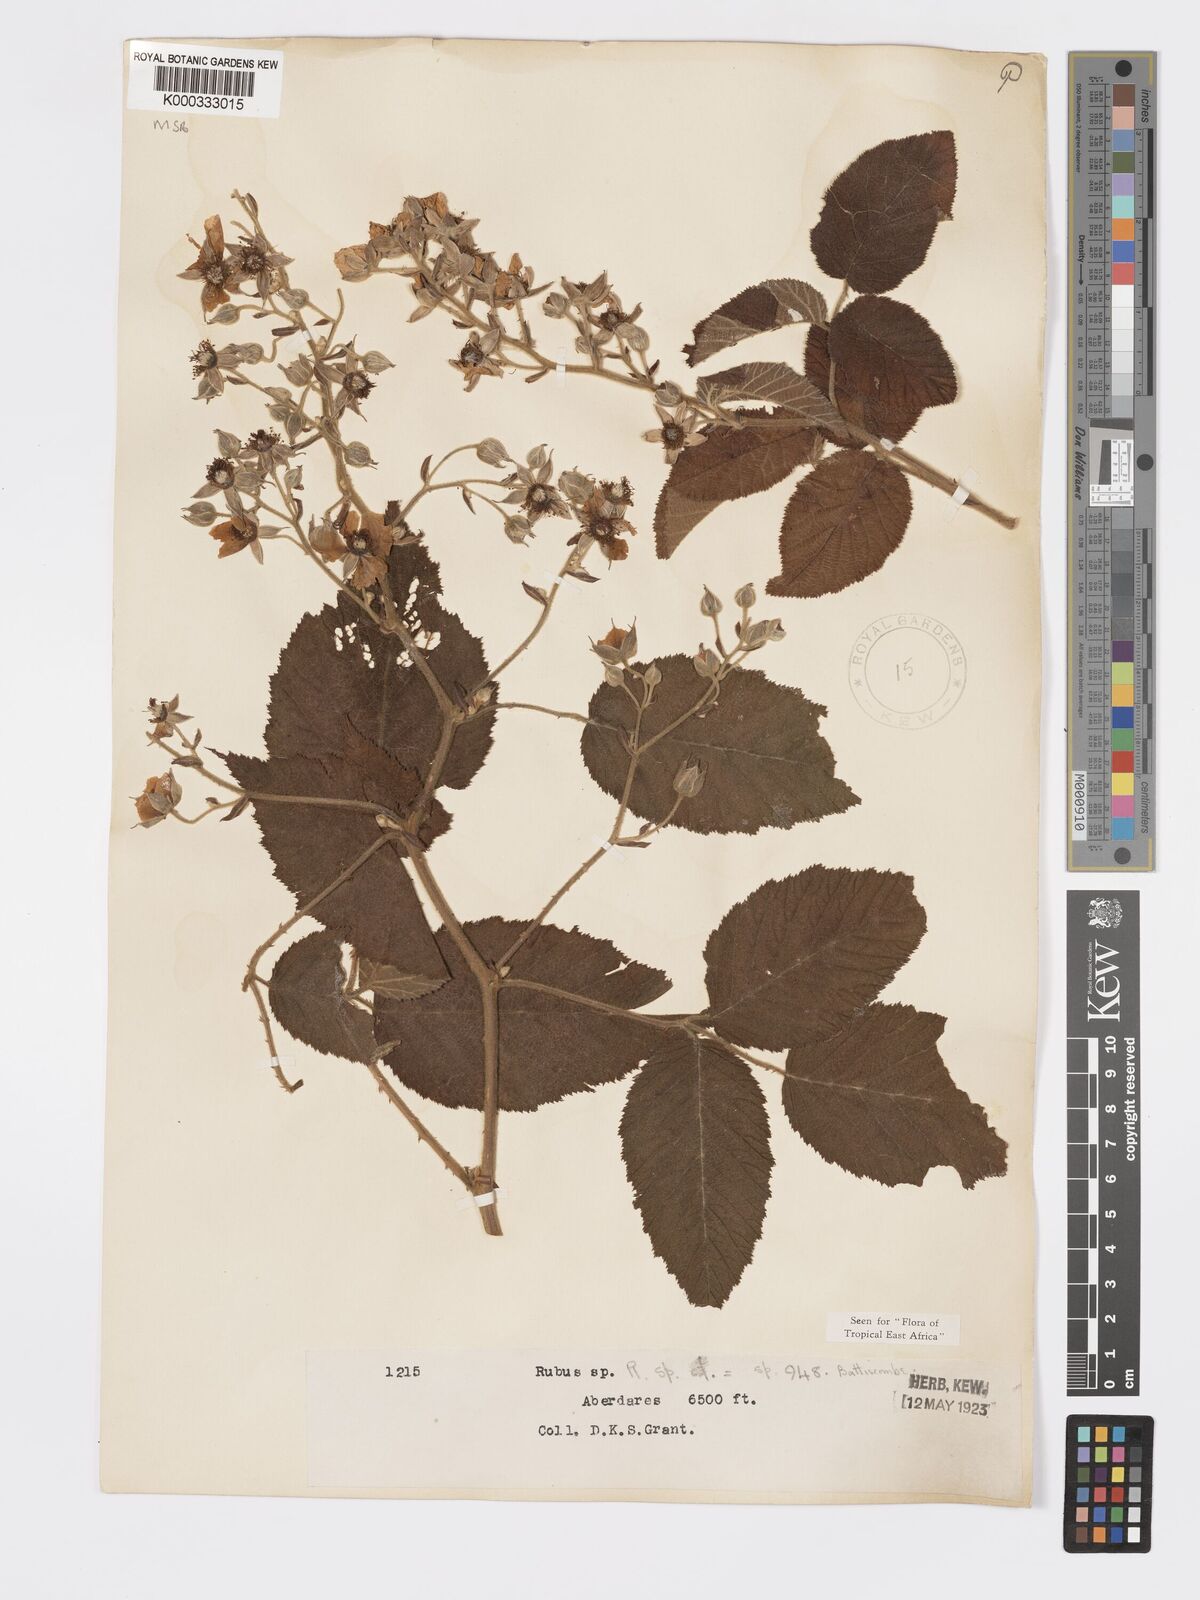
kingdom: Plantae
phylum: Tracheophyta
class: Magnoliopsida
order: Rosales
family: Rosaceae
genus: Rubus
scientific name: Rubus keniensis
